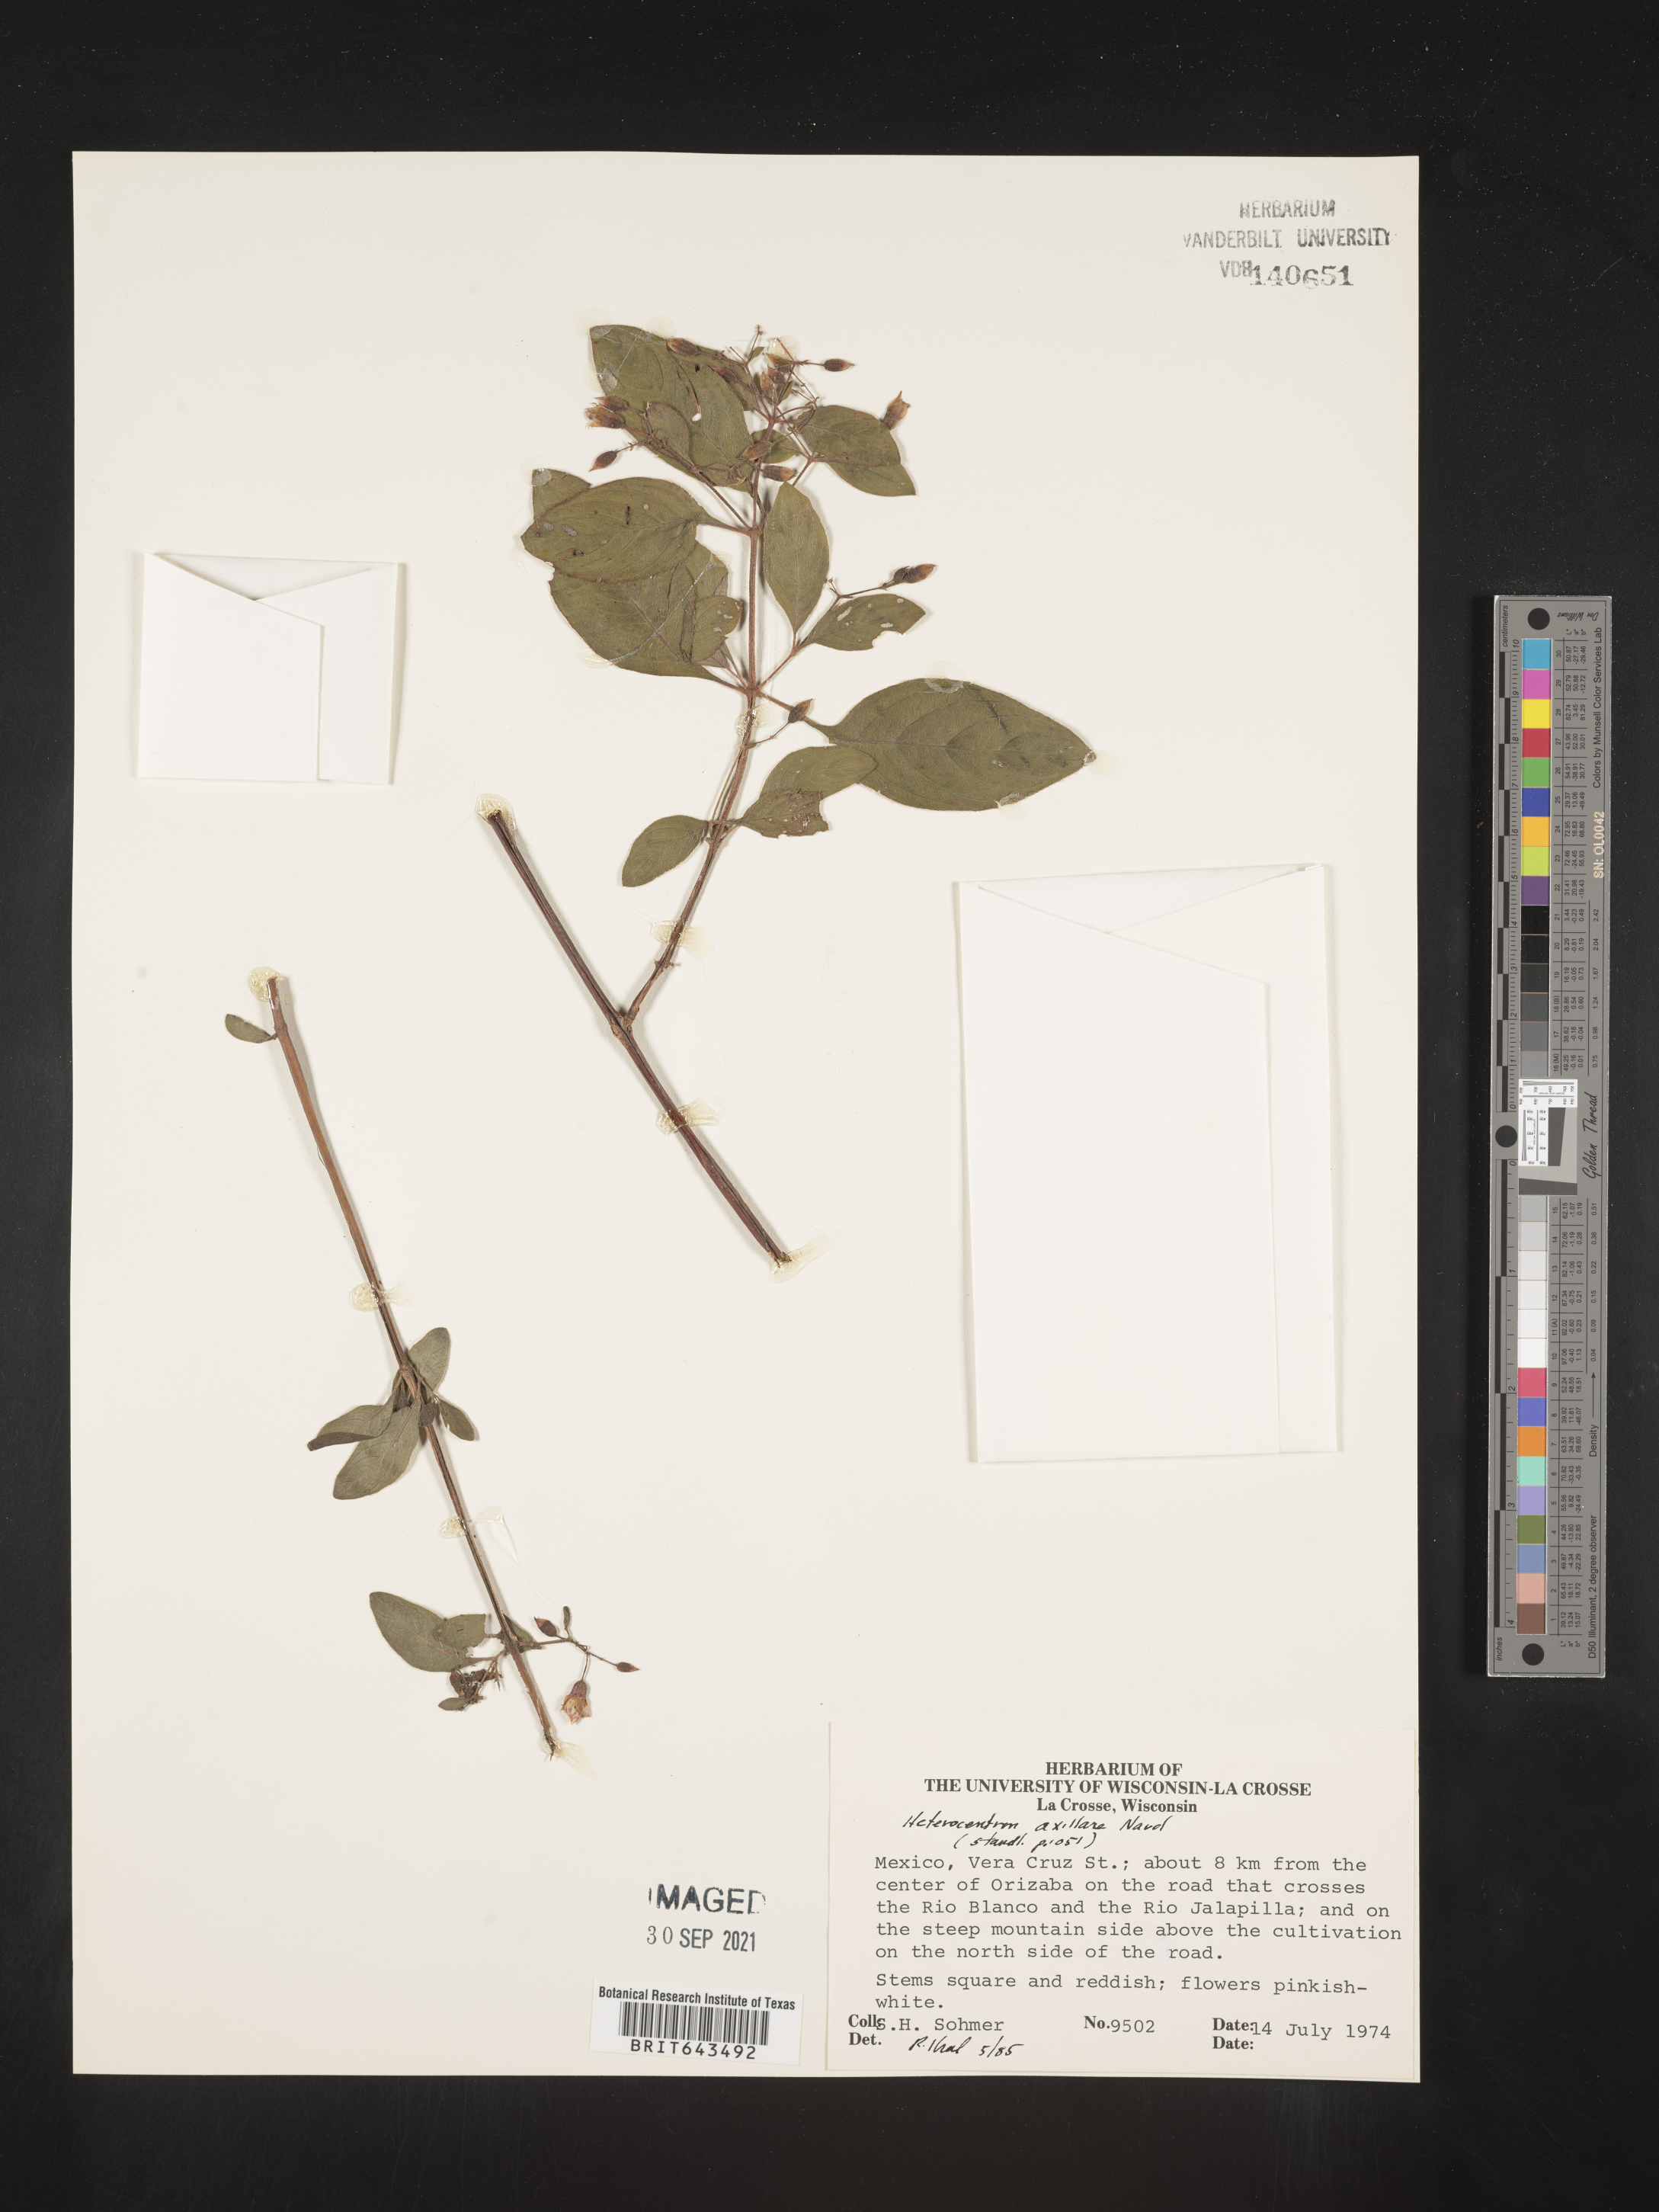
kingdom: Plantae
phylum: Tracheophyta
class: Magnoliopsida
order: Myrtales
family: Melastomataceae
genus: Heterocentron
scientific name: Heterocentron subtriplinervium
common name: Pearl flower
